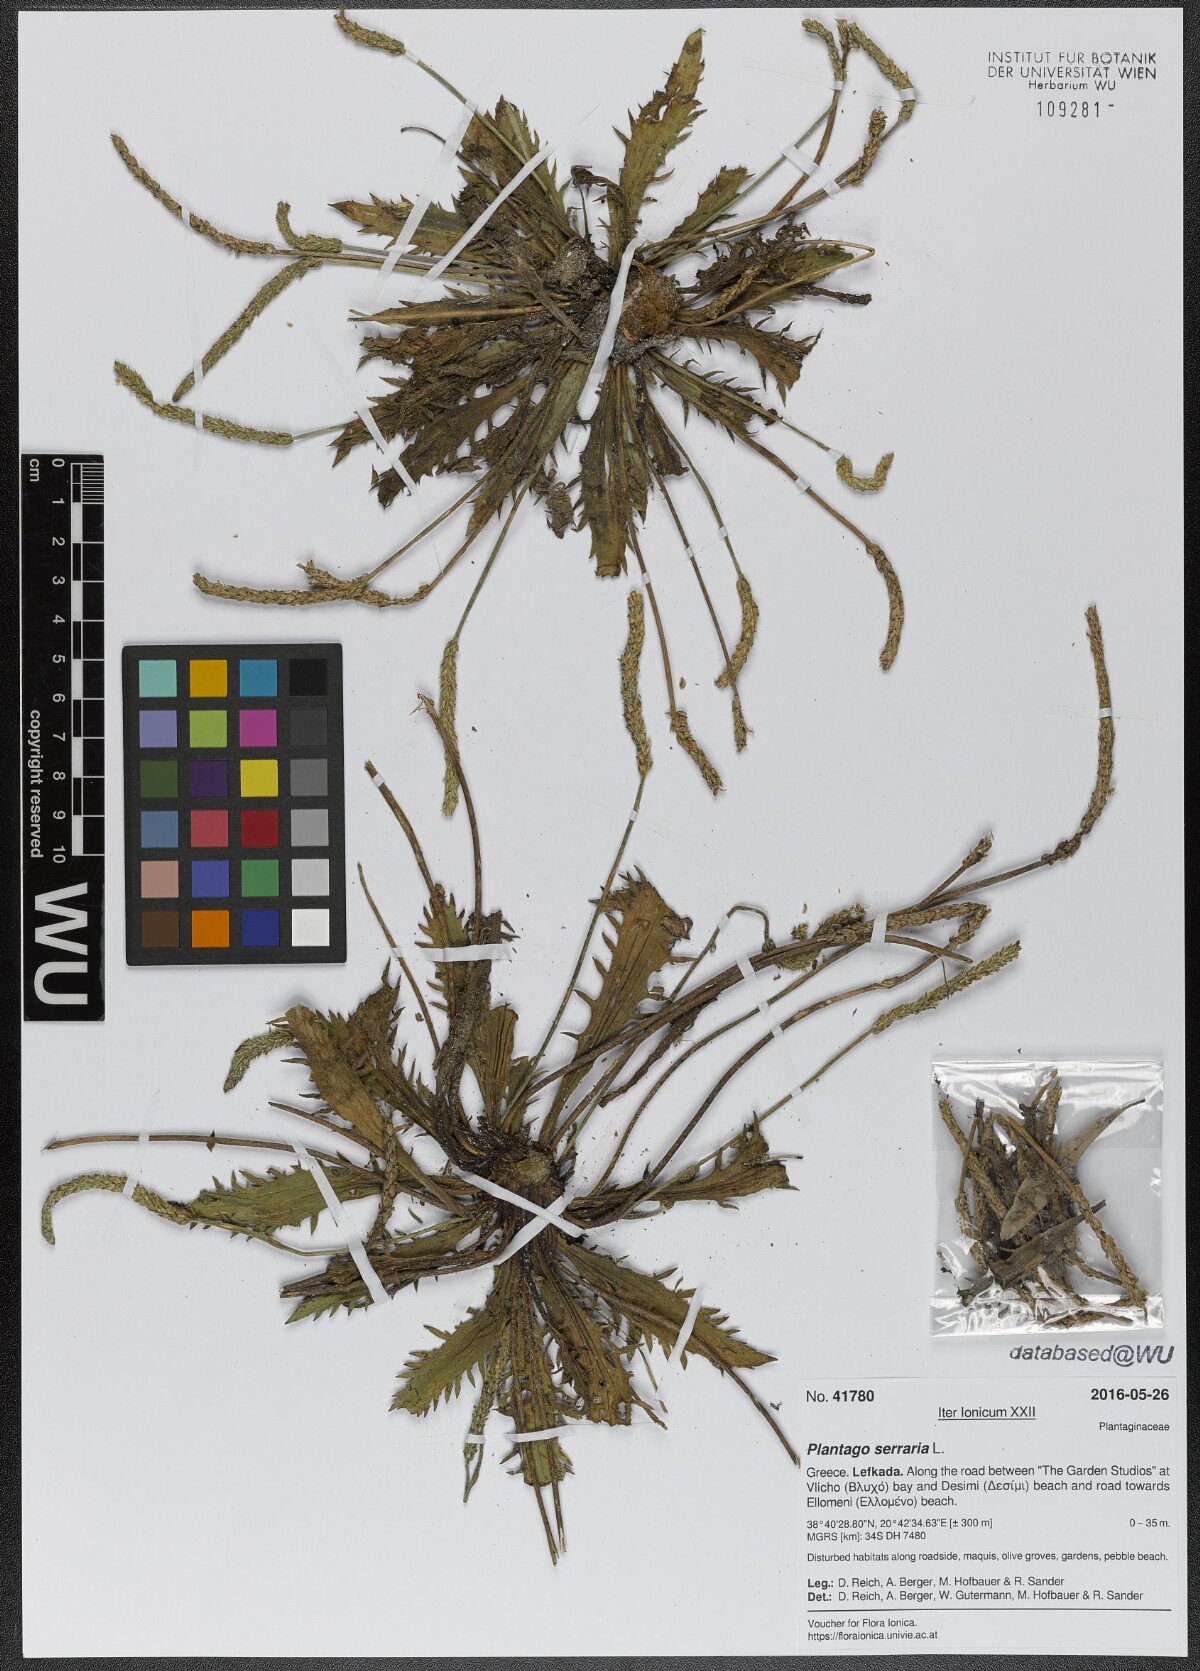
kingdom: Plantae
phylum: Tracheophyta
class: Magnoliopsida
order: Lamiales
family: Plantaginaceae
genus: Plantago
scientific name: Plantago serraria
